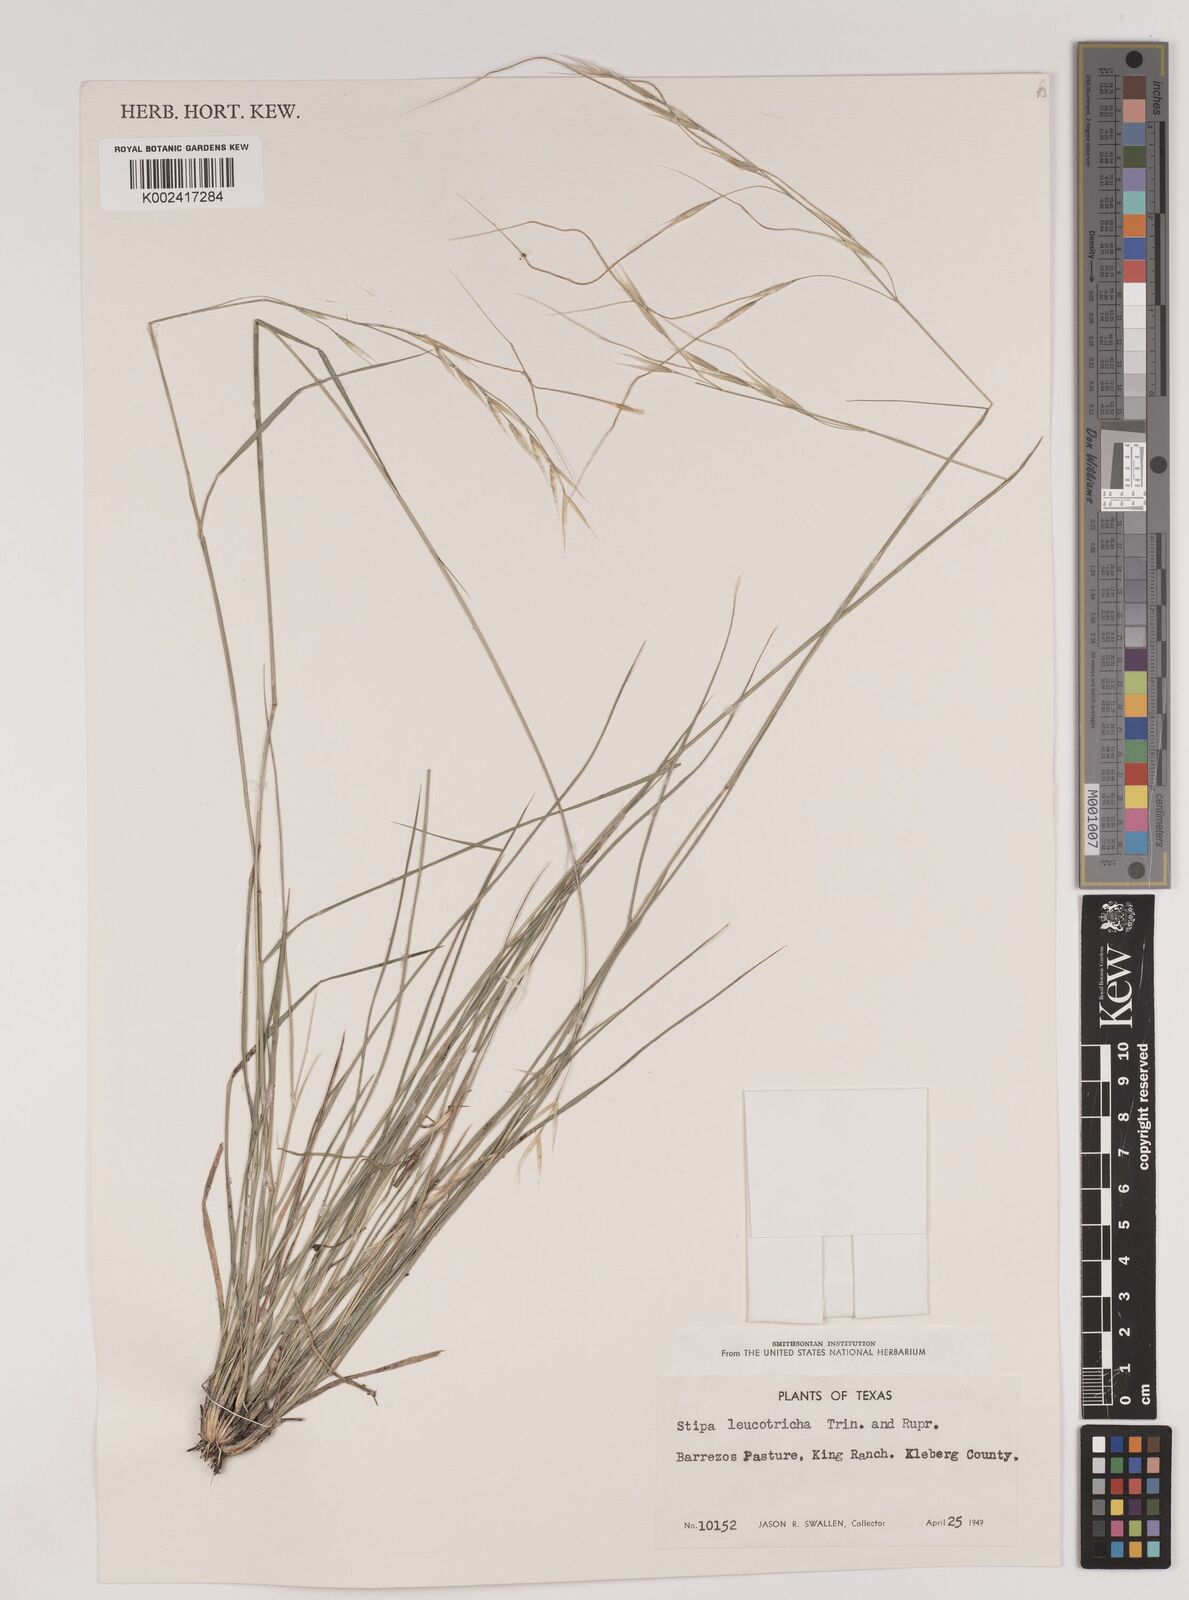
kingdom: Plantae
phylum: Tracheophyta
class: Liliopsida
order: Poales
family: Poaceae
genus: Nassella
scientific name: Nassella leucotricha
